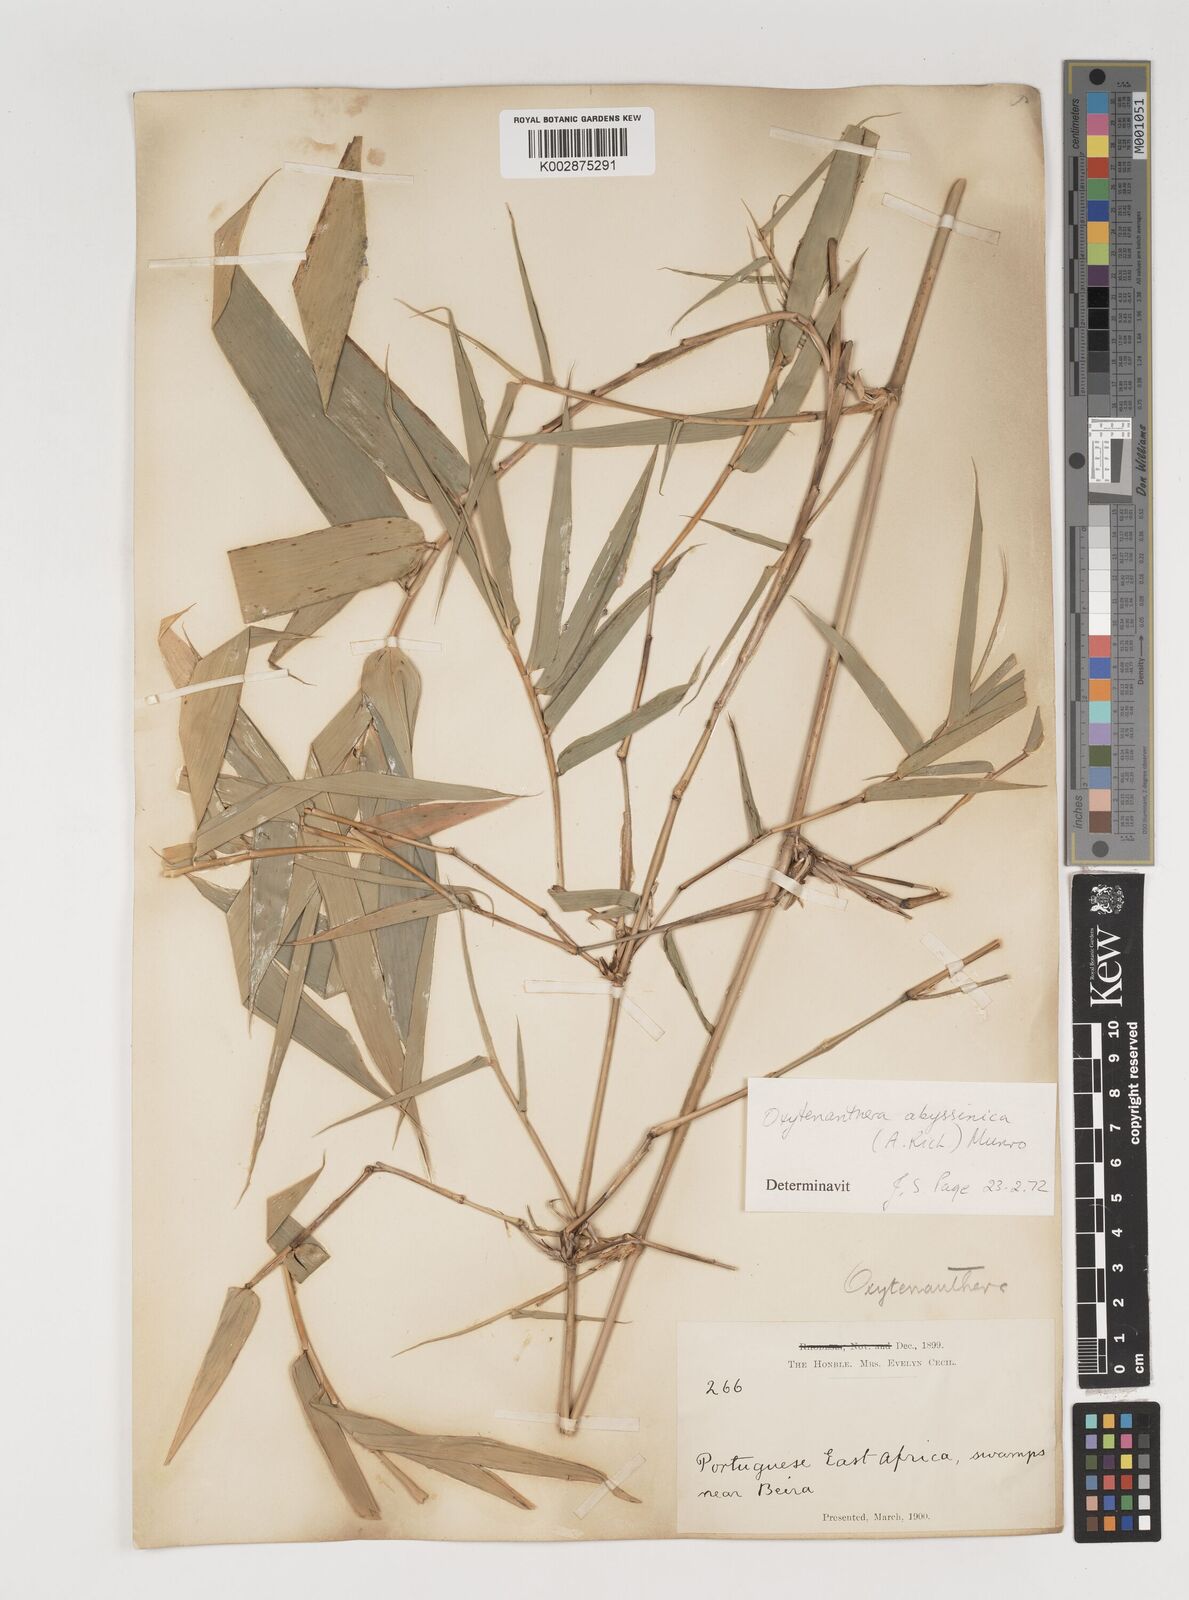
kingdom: Plantae
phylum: Tracheophyta
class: Liliopsida
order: Poales
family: Poaceae
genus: Oxytenanthera
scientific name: Oxytenanthera abyssinica
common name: Wine bamboo
